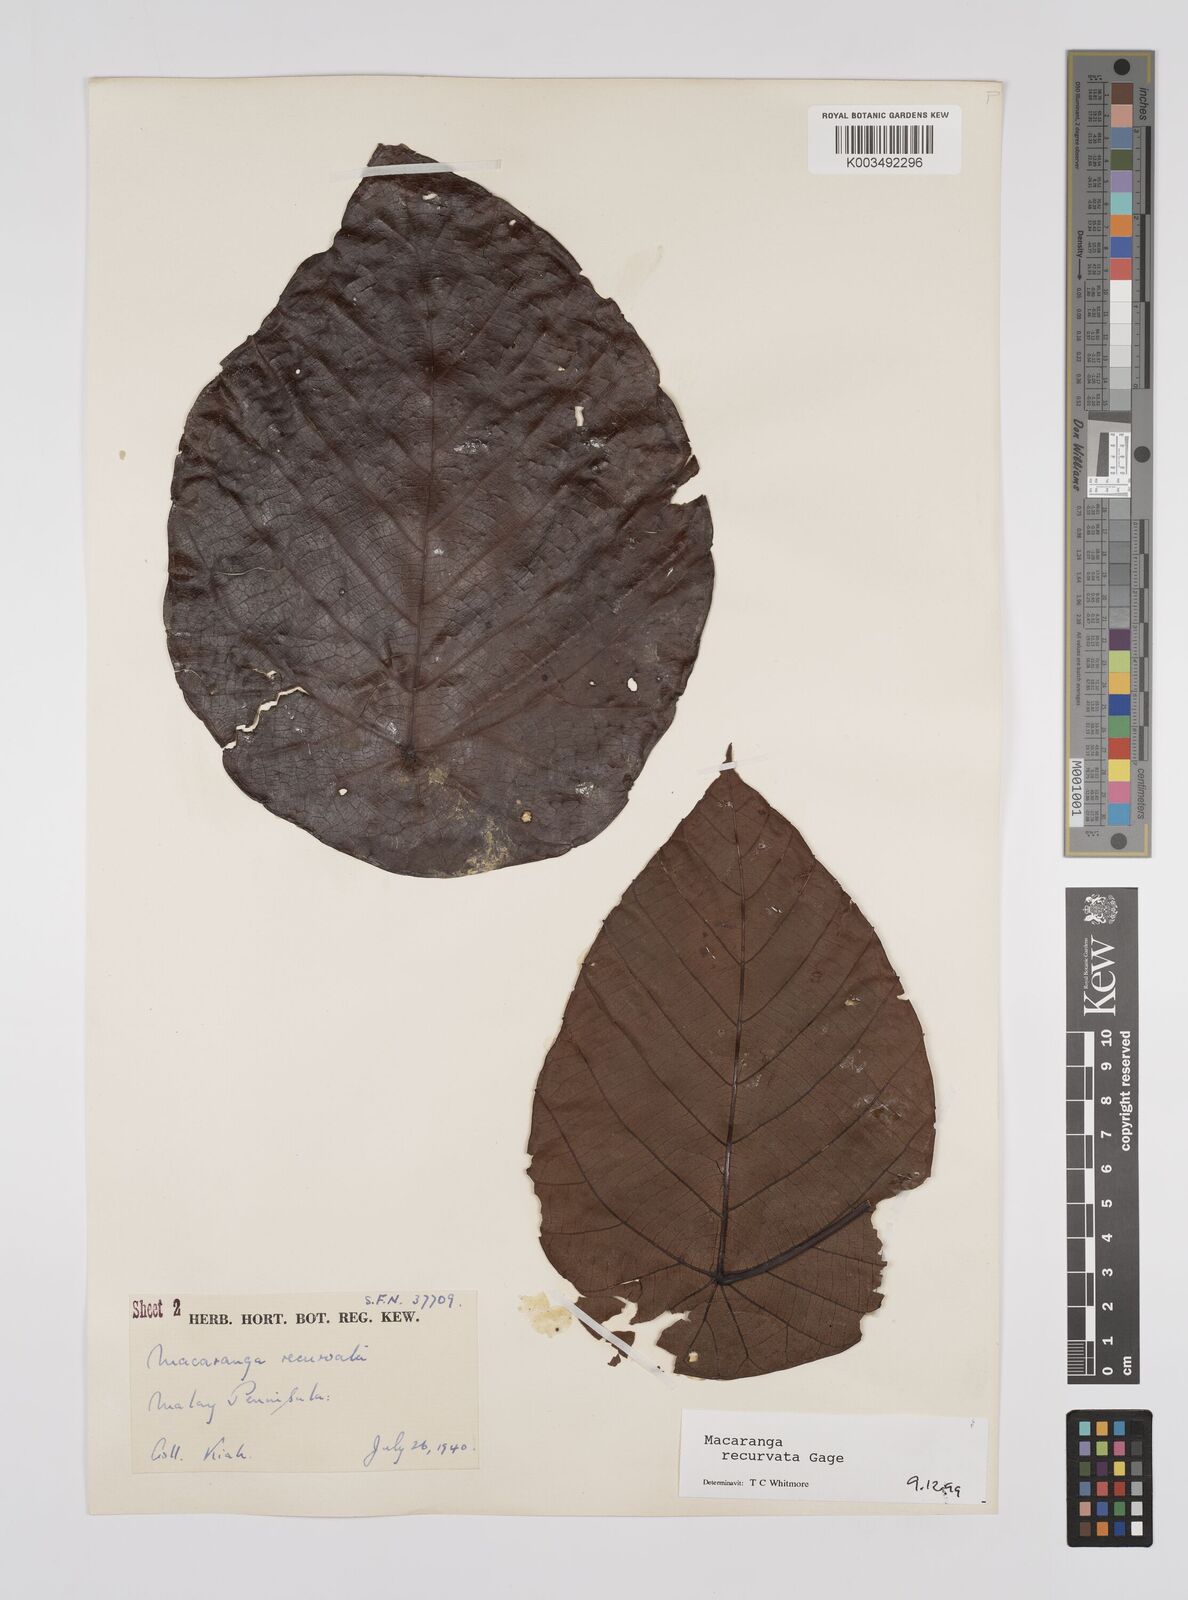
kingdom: Plantae
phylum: Tracheophyta
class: Magnoliopsida
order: Malpighiales
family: Euphorbiaceae
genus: Macaranga
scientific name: Macaranga recurvata
